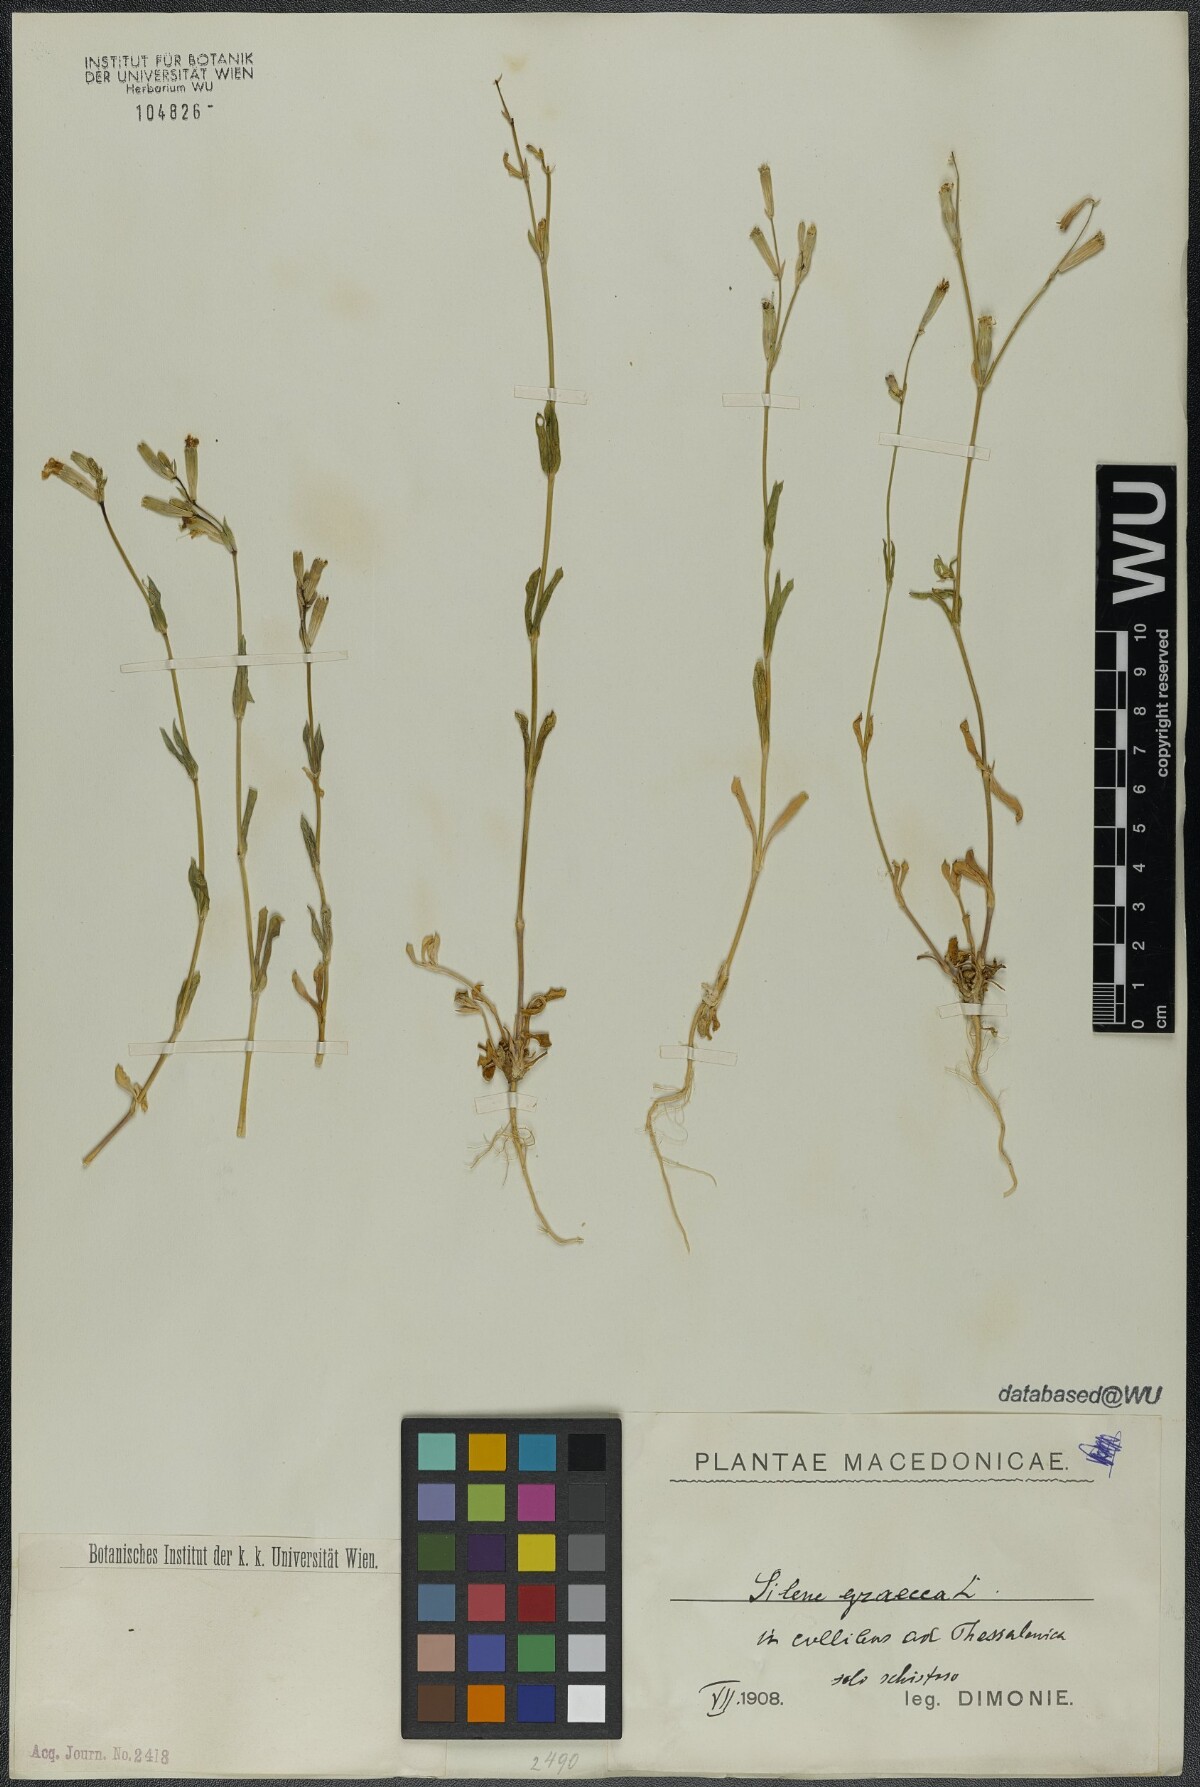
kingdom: Plantae
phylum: Tracheophyta
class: Magnoliopsida
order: Caryophyllales
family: Caryophyllaceae
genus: Silene
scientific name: Silene graeca
